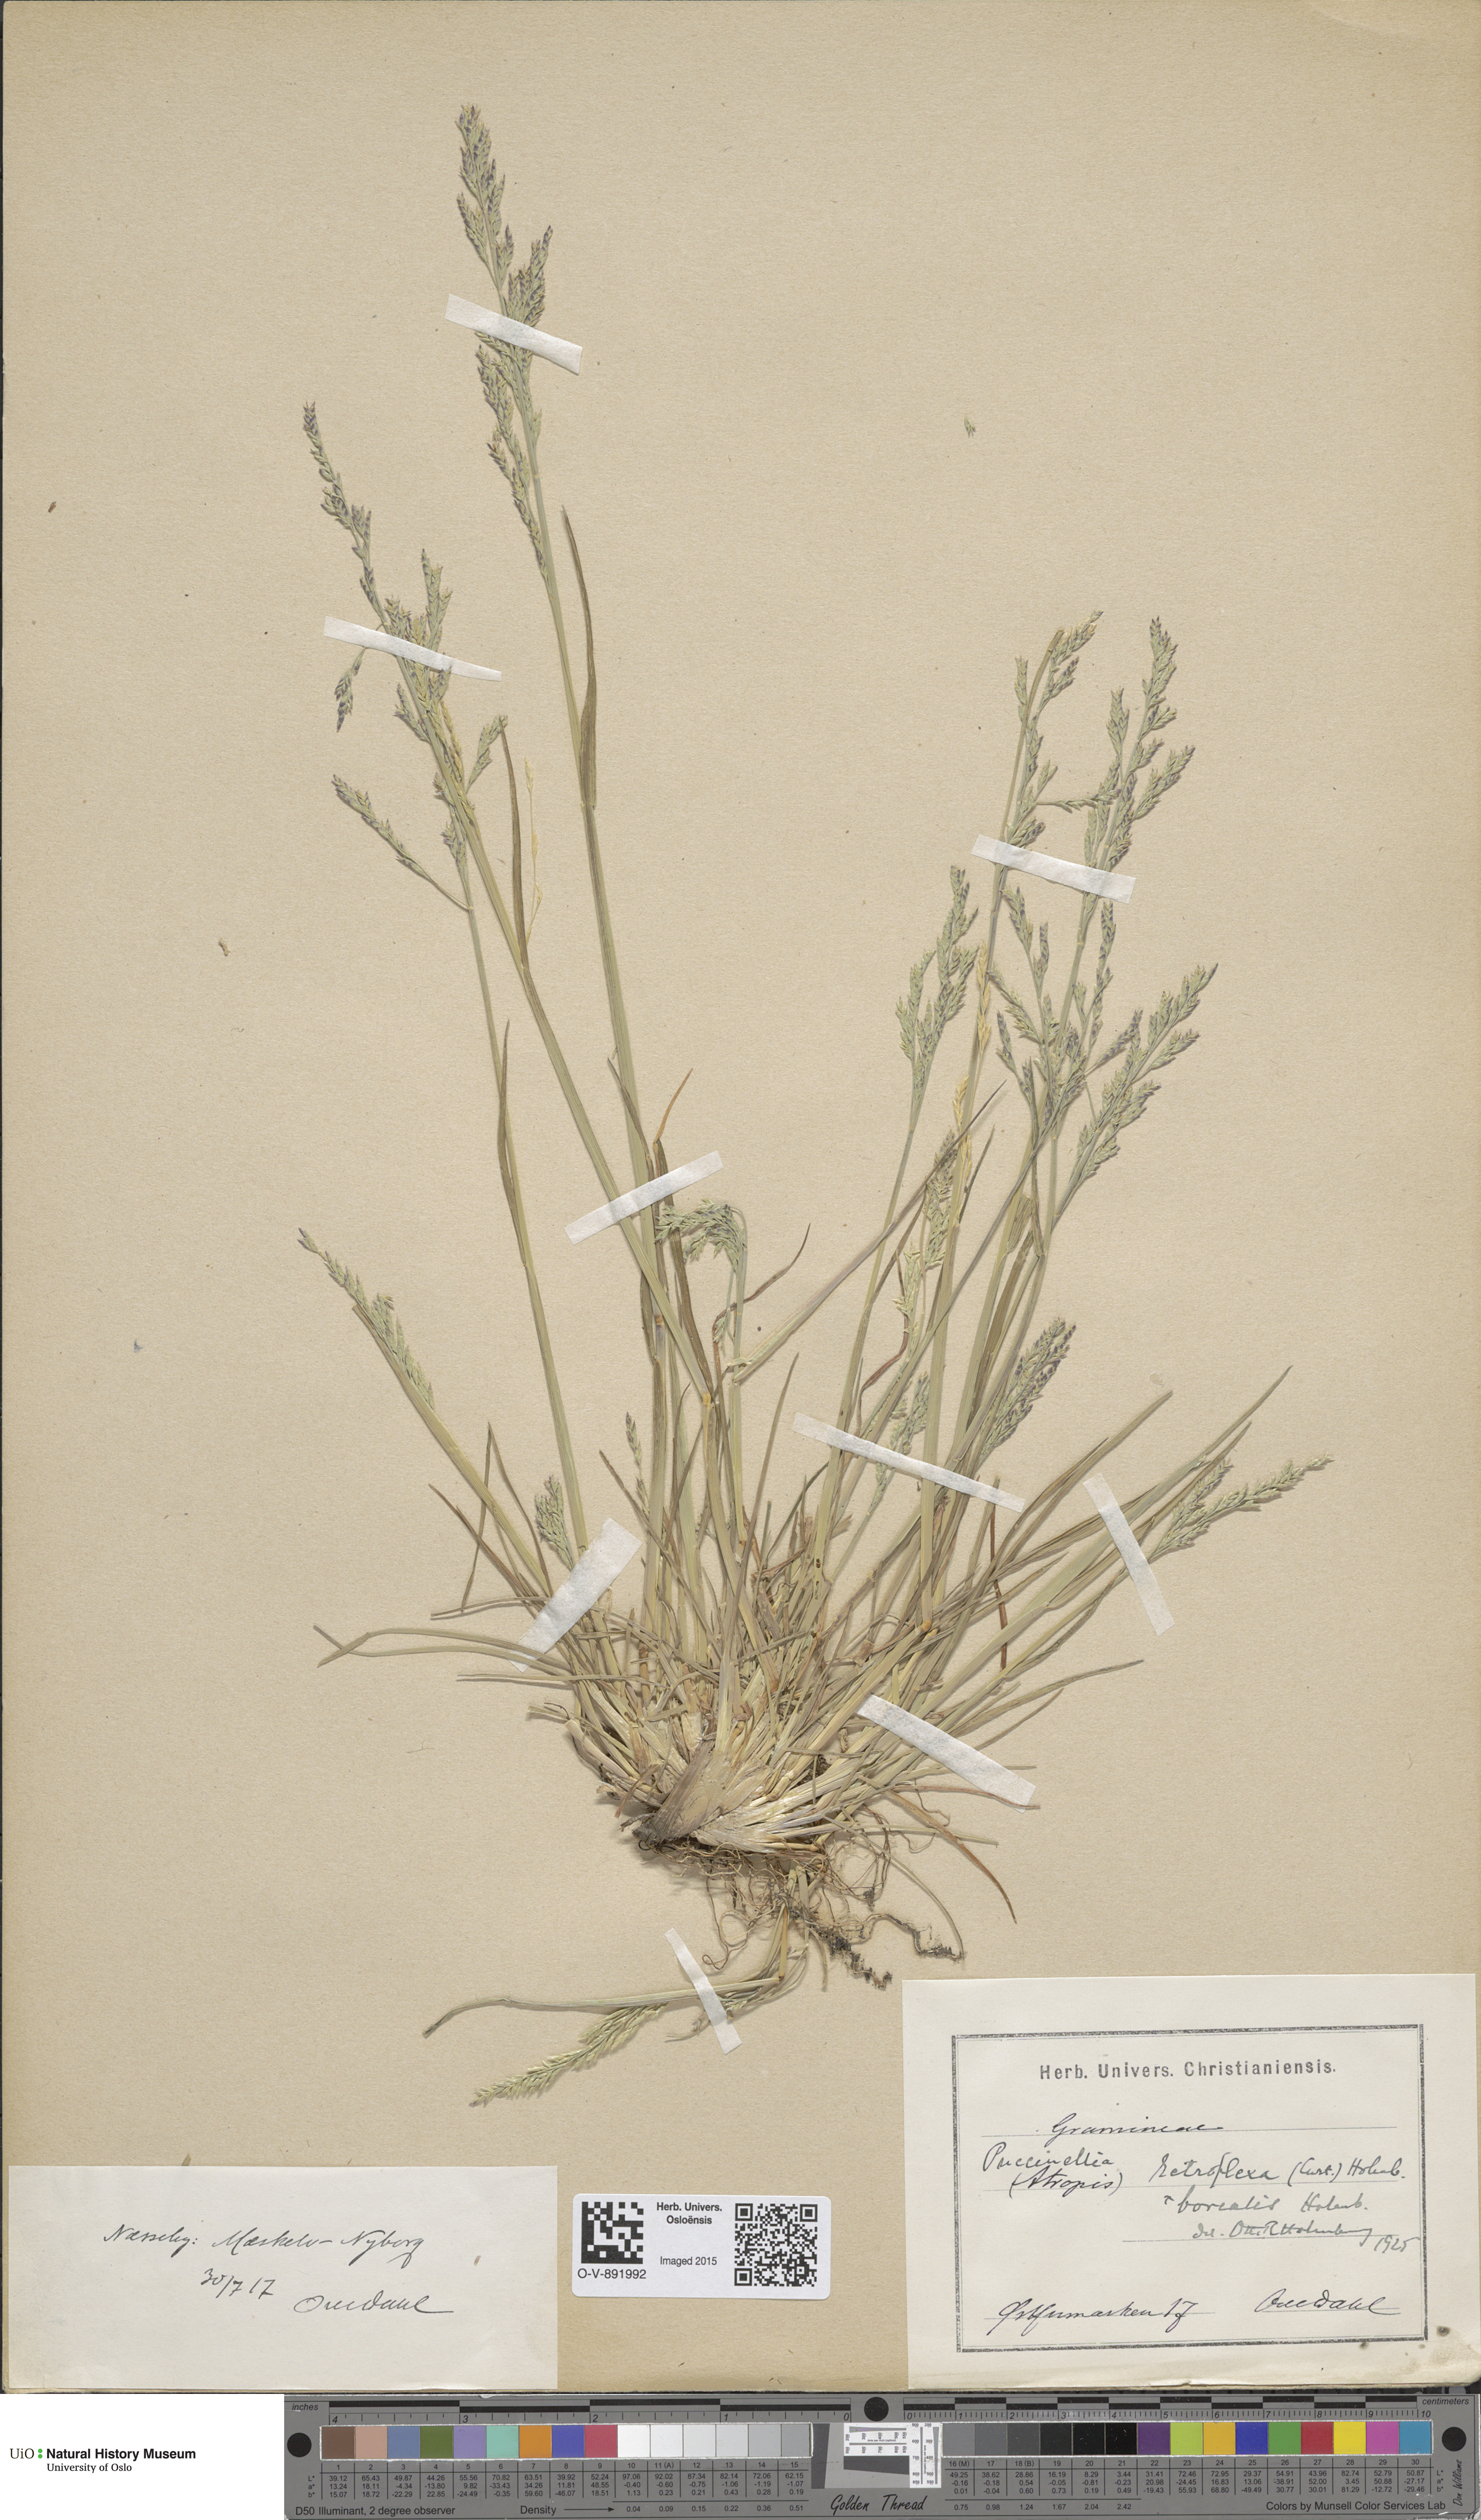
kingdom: Plantae
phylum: Tracheophyta
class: Liliopsida
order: Poales
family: Poaceae
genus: Puccinellia
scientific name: Puccinellia distans
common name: Weeping alkaligrass
